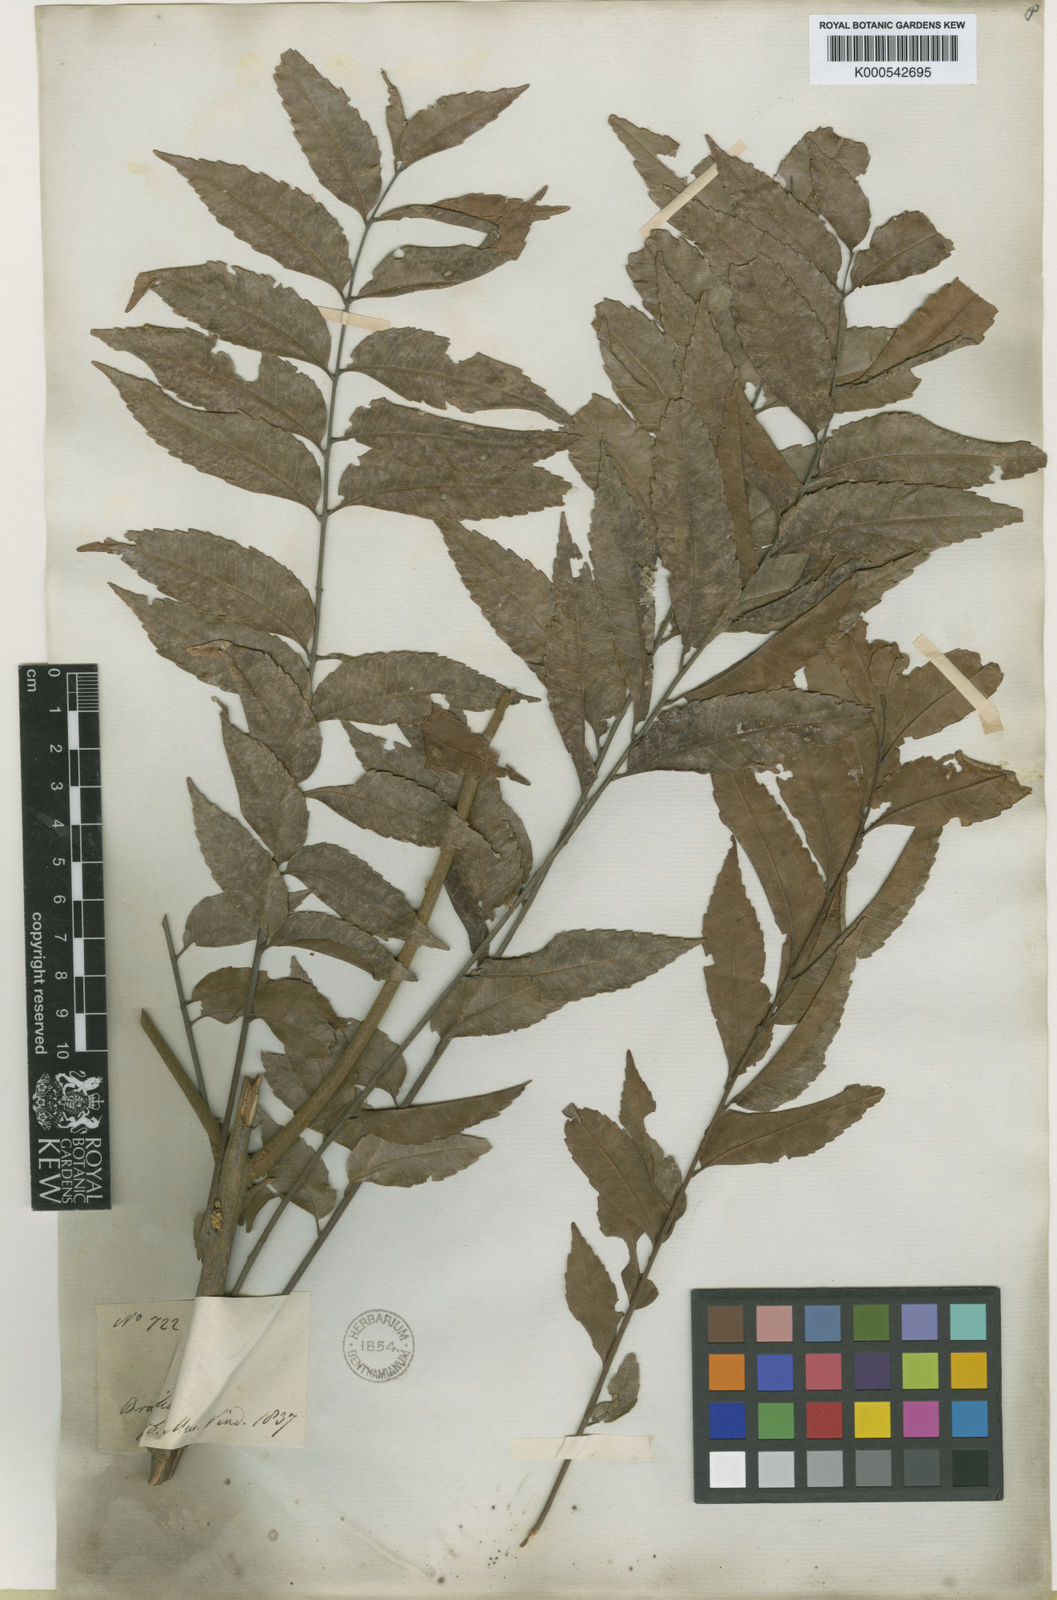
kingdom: Plantae
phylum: Tracheophyta
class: Magnoliopsida
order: Sapindales
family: Sapindaceae
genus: Toulicia
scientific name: Toulicia stans
